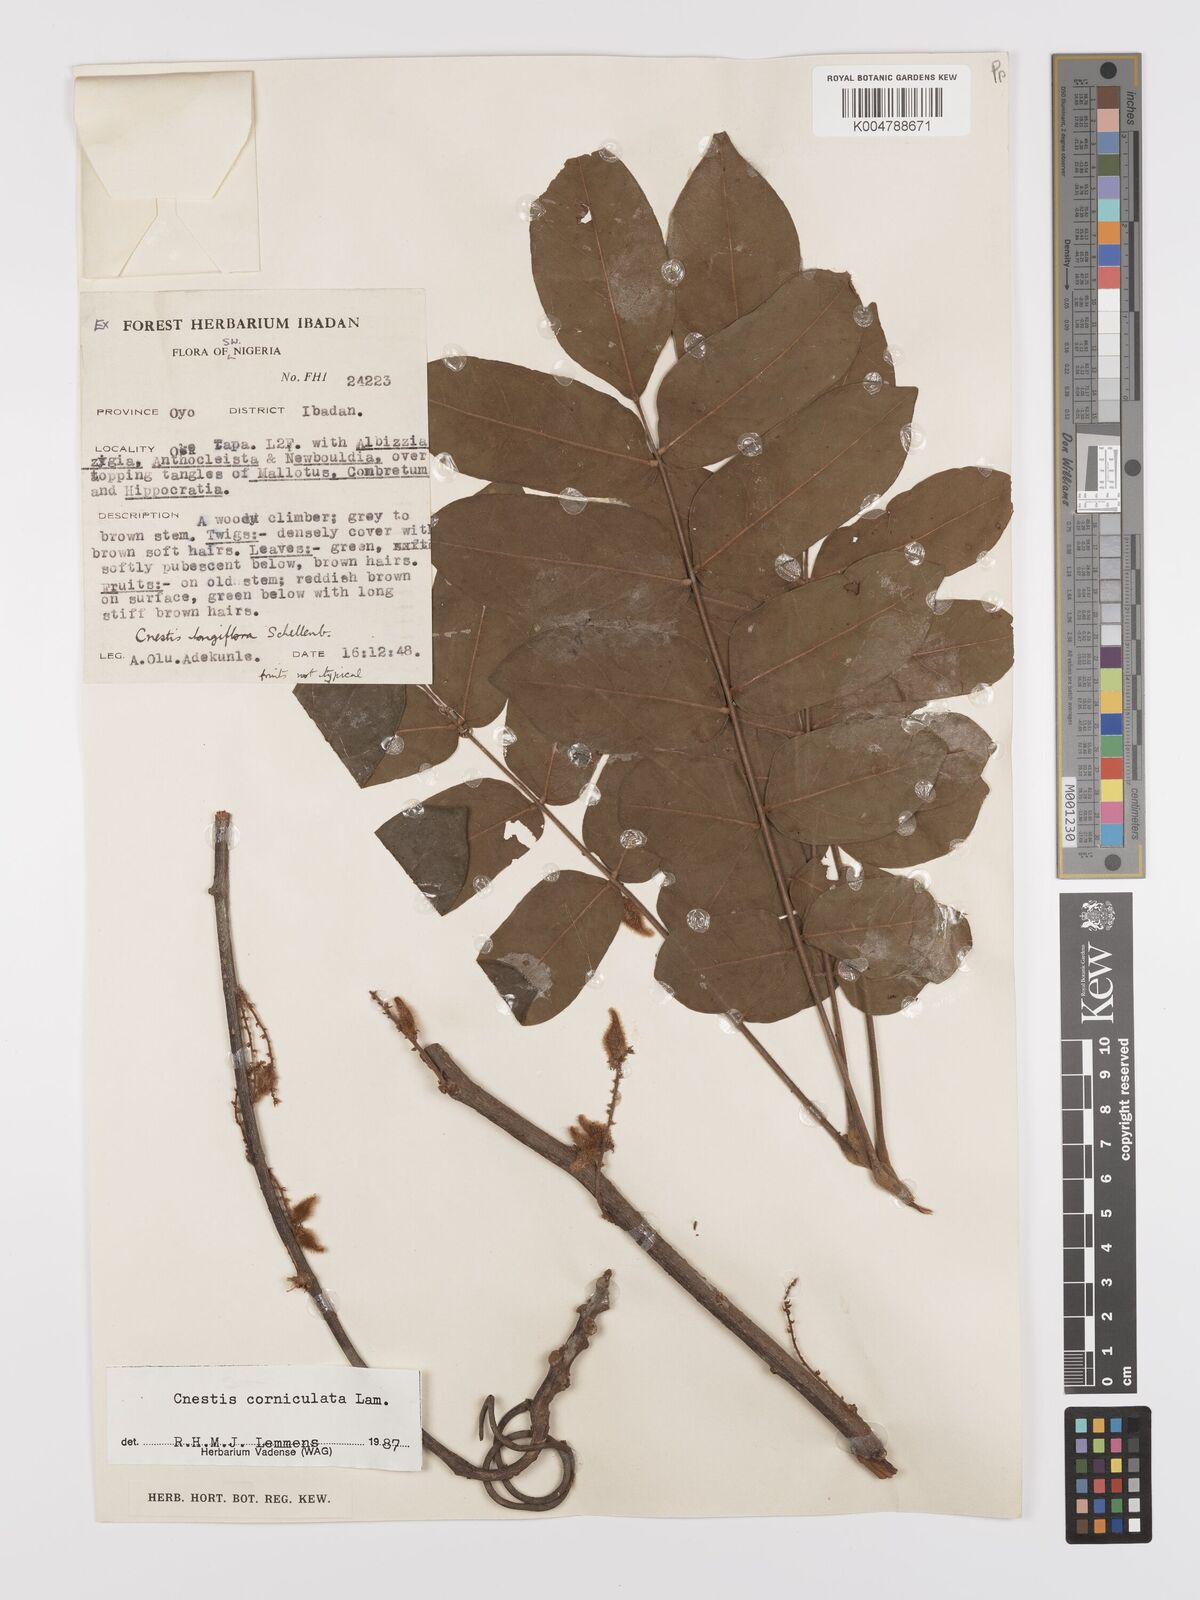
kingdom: Plantae
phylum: Tracheophyta
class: Magnoliopsida
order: Oxalidales
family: Connaraceae
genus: Cnestis
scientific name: Cnestis corniculata
